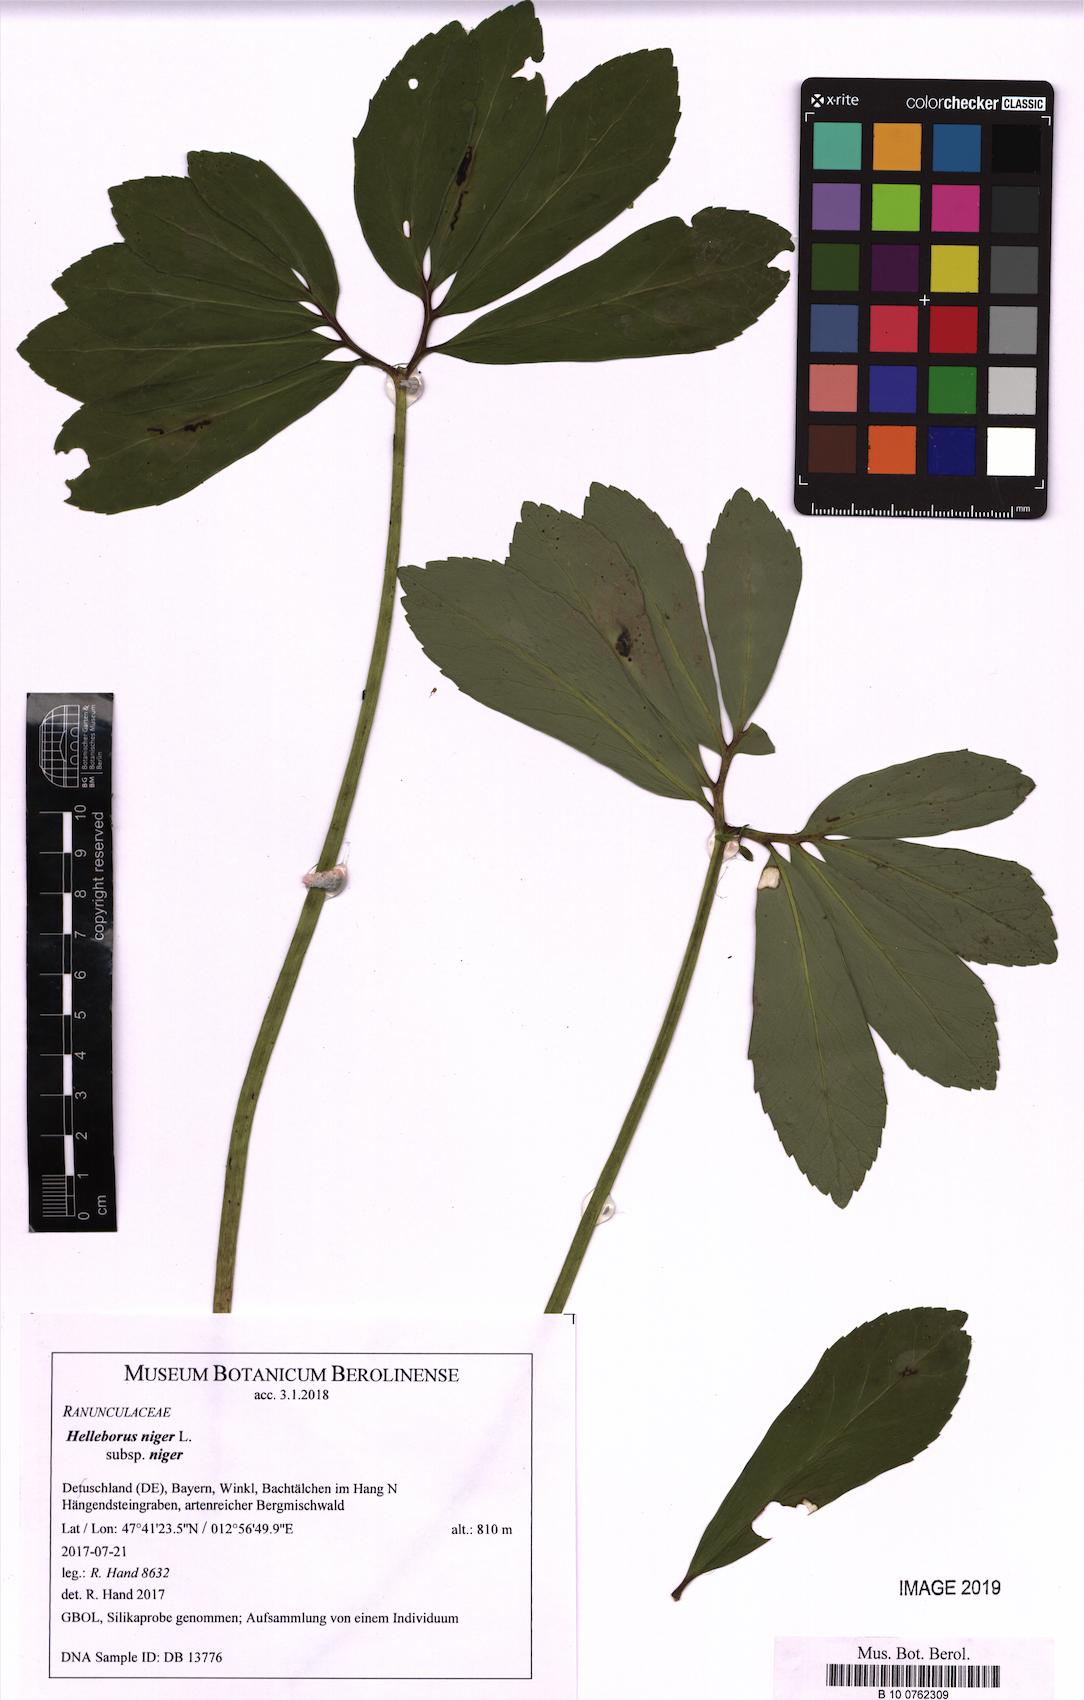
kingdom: Plantae
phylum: Tracheophyta
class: Magnoliopsida
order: Ranunculales
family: Ranunculaceae
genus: Helleborus
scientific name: Helleborus niger
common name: Black hellebore
